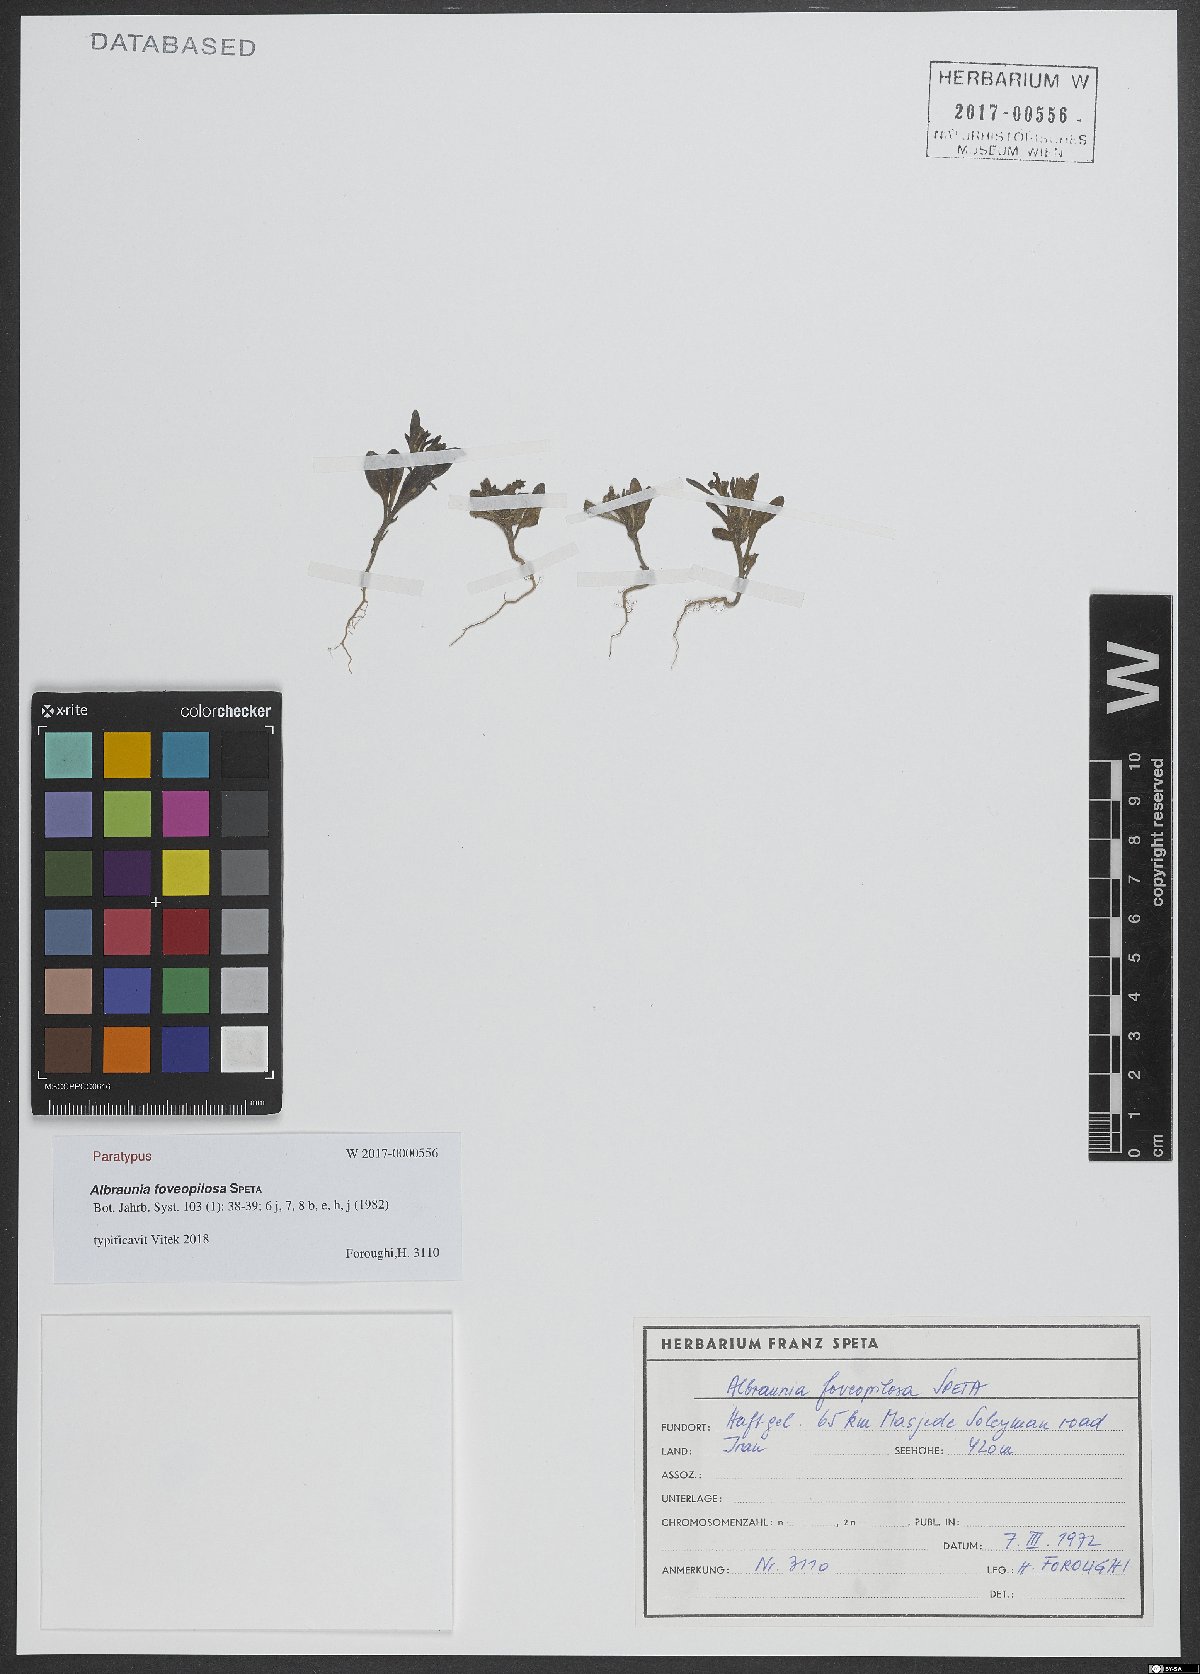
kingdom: Plantae
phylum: Tracheophyta
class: Magnoliopsida
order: Lamiales
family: Plantaginaceae
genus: Albraunia
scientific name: Albraunia foveopilosa
